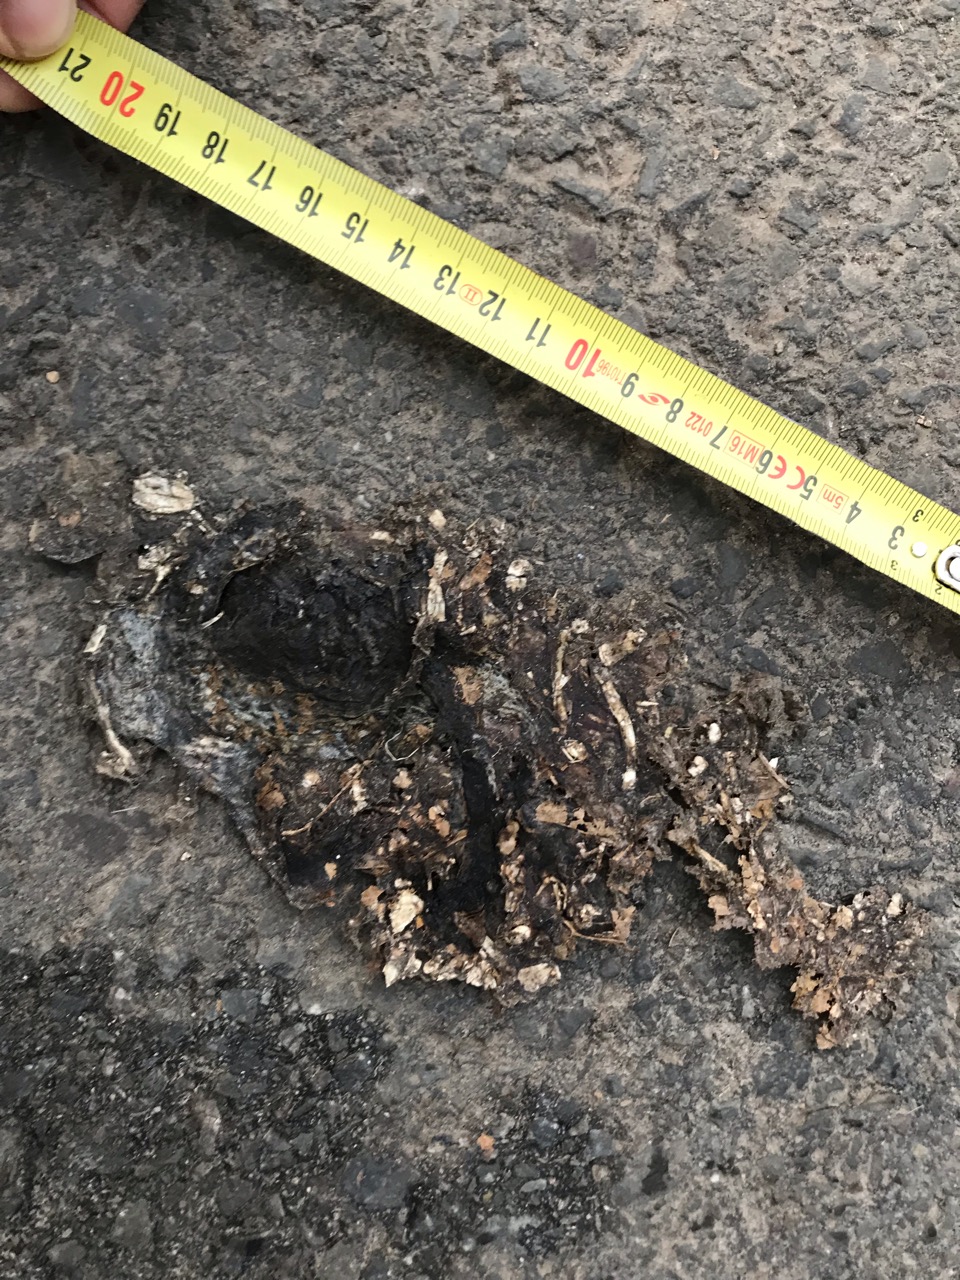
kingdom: Animalia
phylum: Chordata
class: Amphibia
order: Anura
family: Bufonidae
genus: Bufo
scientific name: Bufo bufo
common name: Common toad
